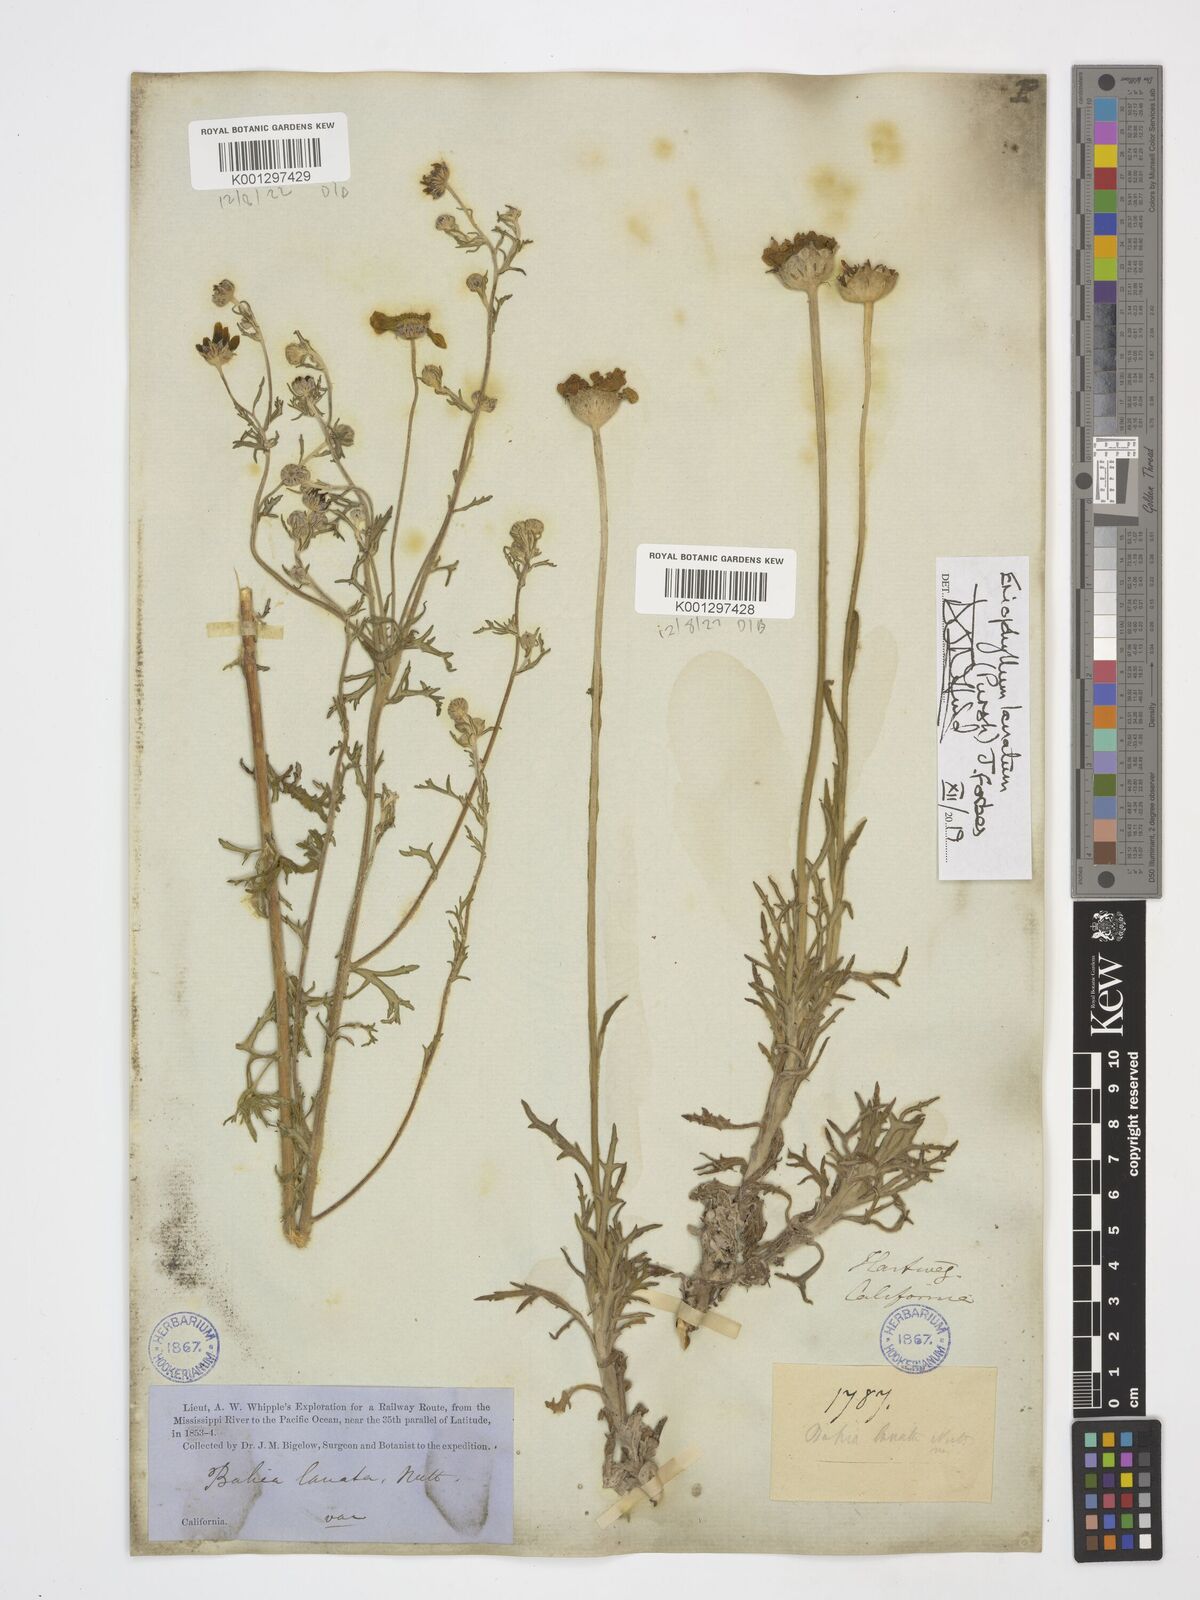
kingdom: Plantae
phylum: Tracheophyta
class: Magnoliopsida
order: Asterales
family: Asteraceae
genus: Eriophyllum
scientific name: Eriophyllum lanatum
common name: Common woolly-sunflower
